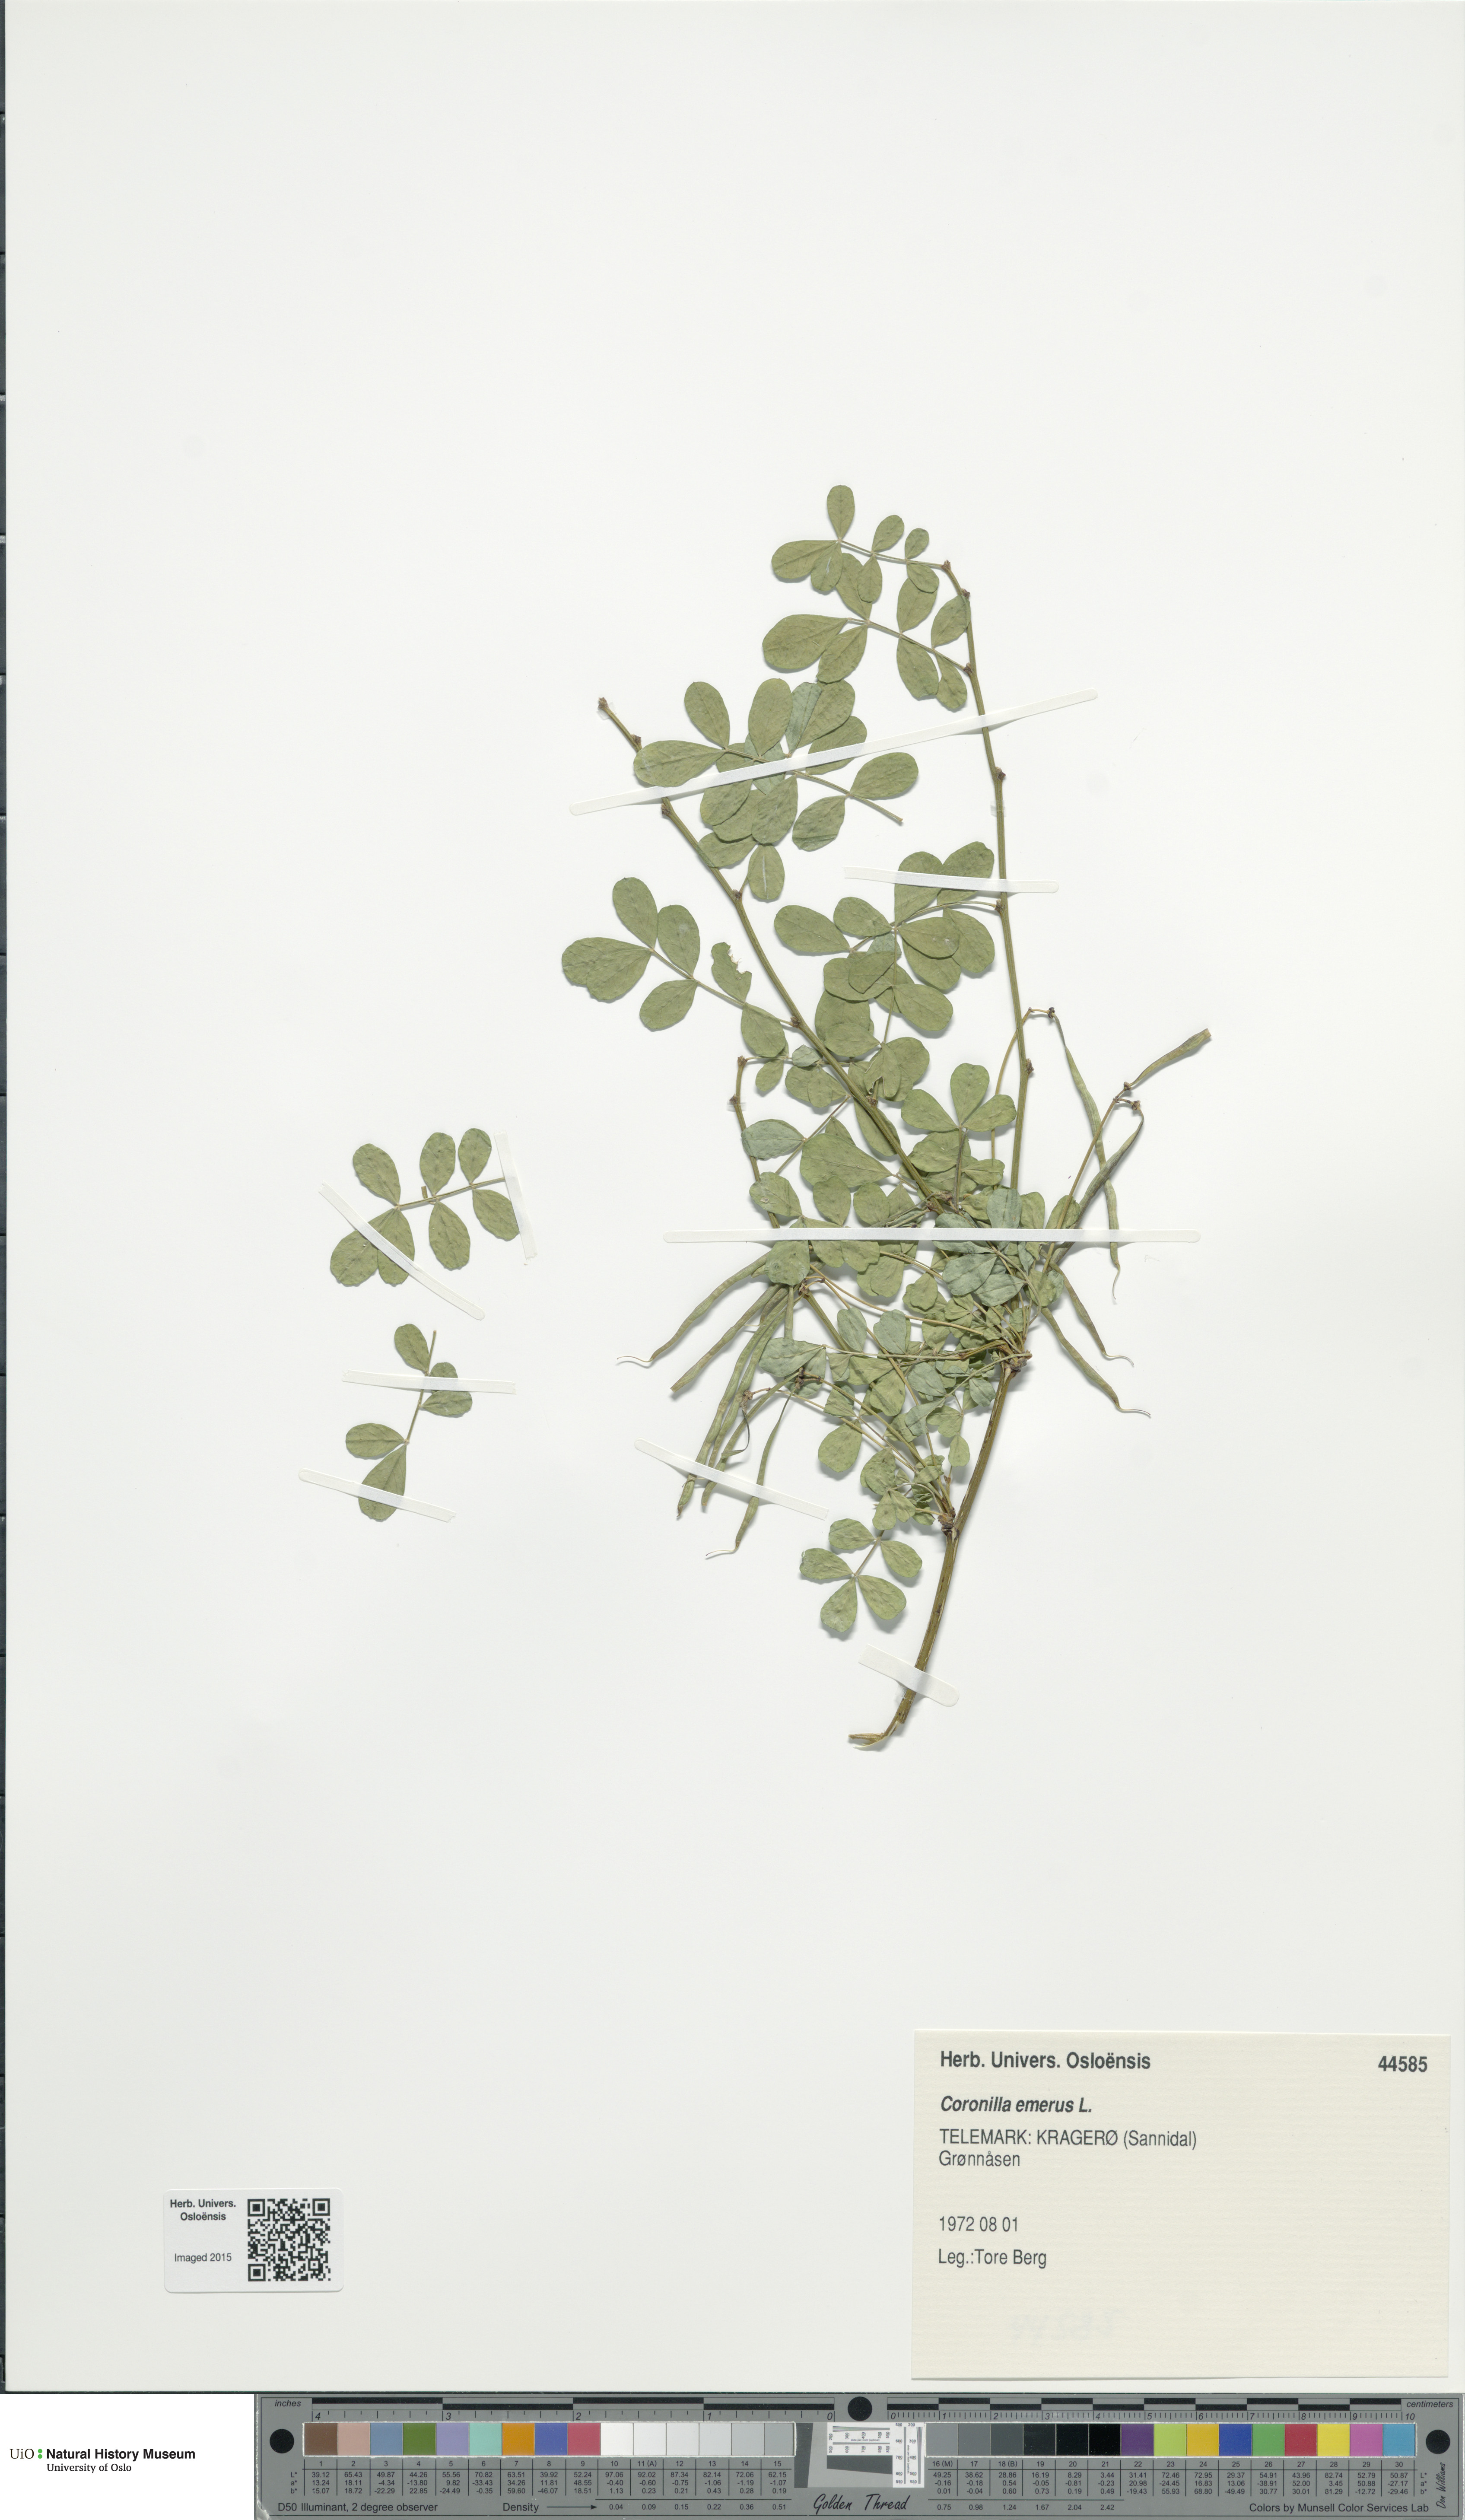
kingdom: Plantae
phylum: Tracheophyta
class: Magnoliopsida
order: Fabales
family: Fabaceae
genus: Hippocrepis
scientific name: Hippocrepis emerus
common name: Scorpion senna
